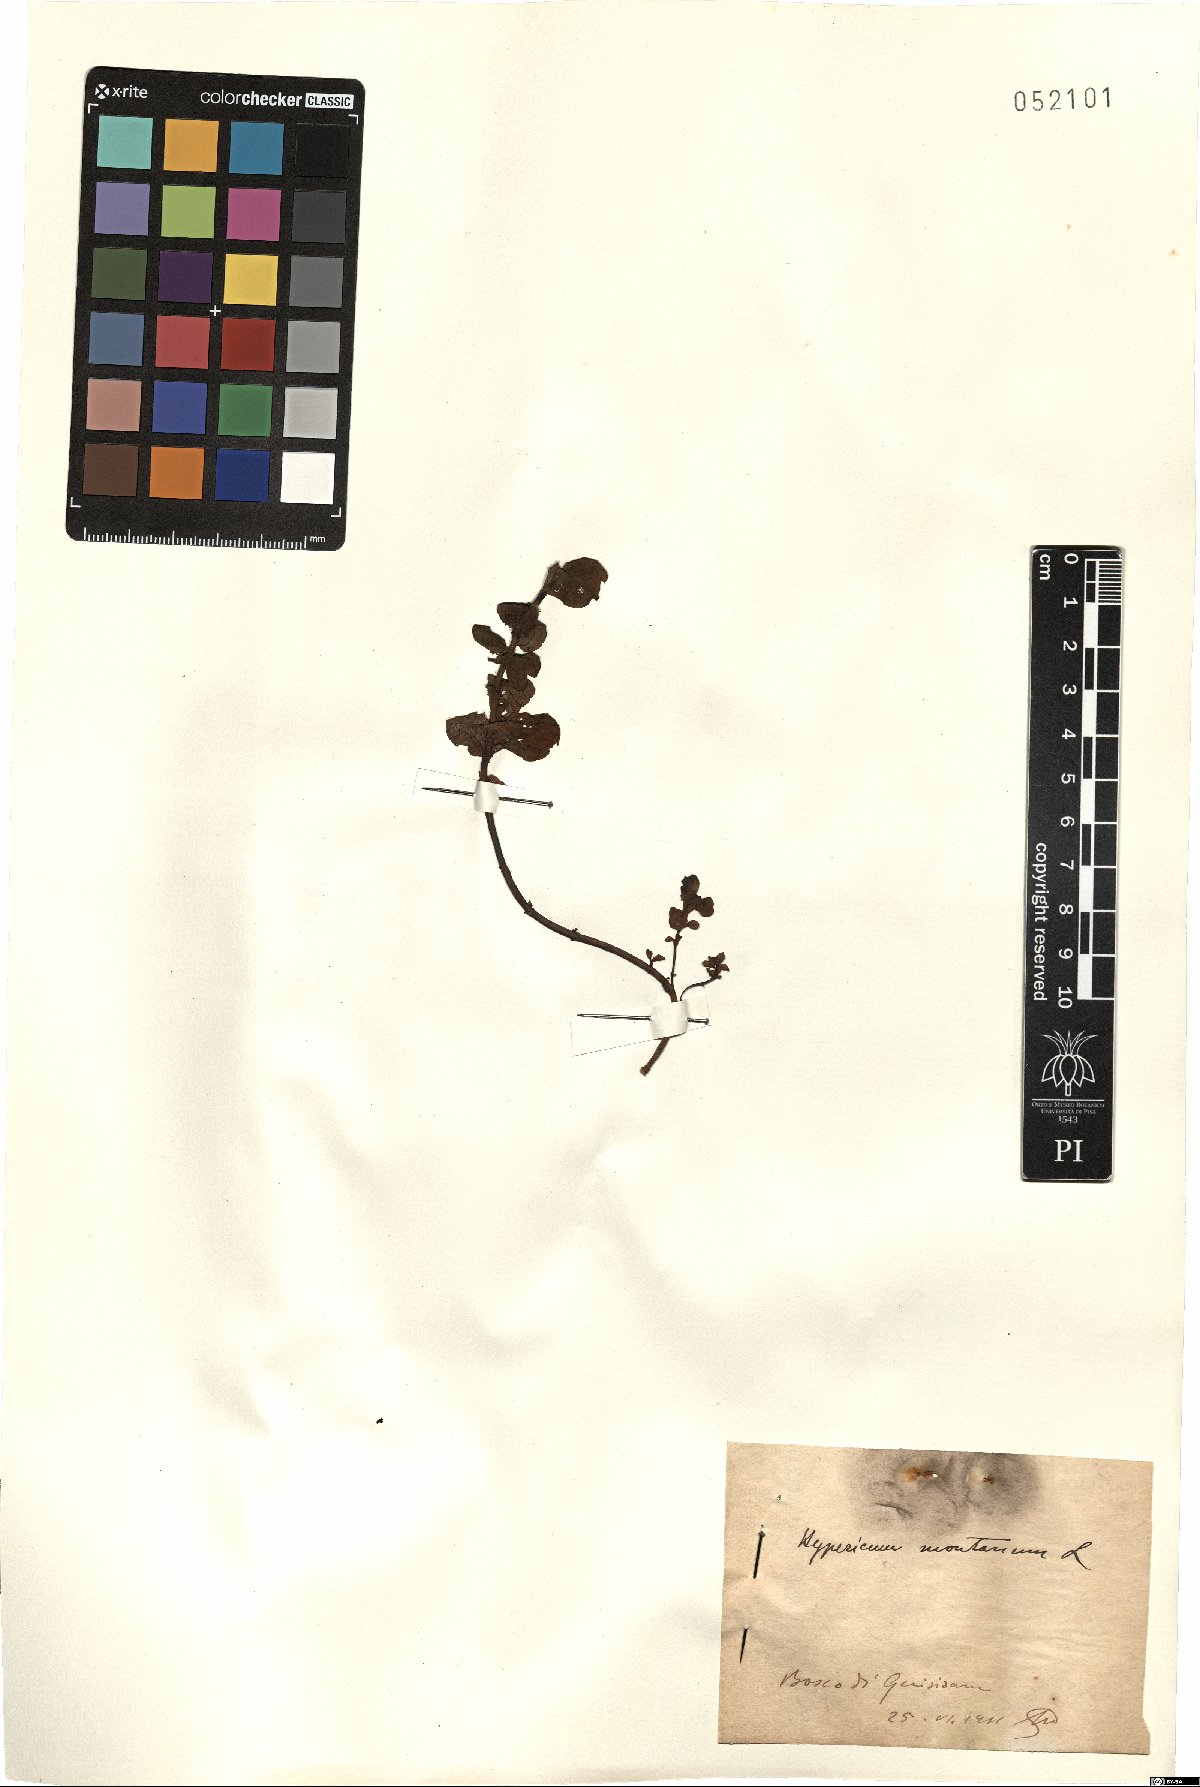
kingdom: Plantae
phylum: Tracheophyta
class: Magnoliopsida
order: Malpighiales
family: Hypericaceae
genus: Hypericum
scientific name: Hypericum montanum
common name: Pale st. john's-wort
